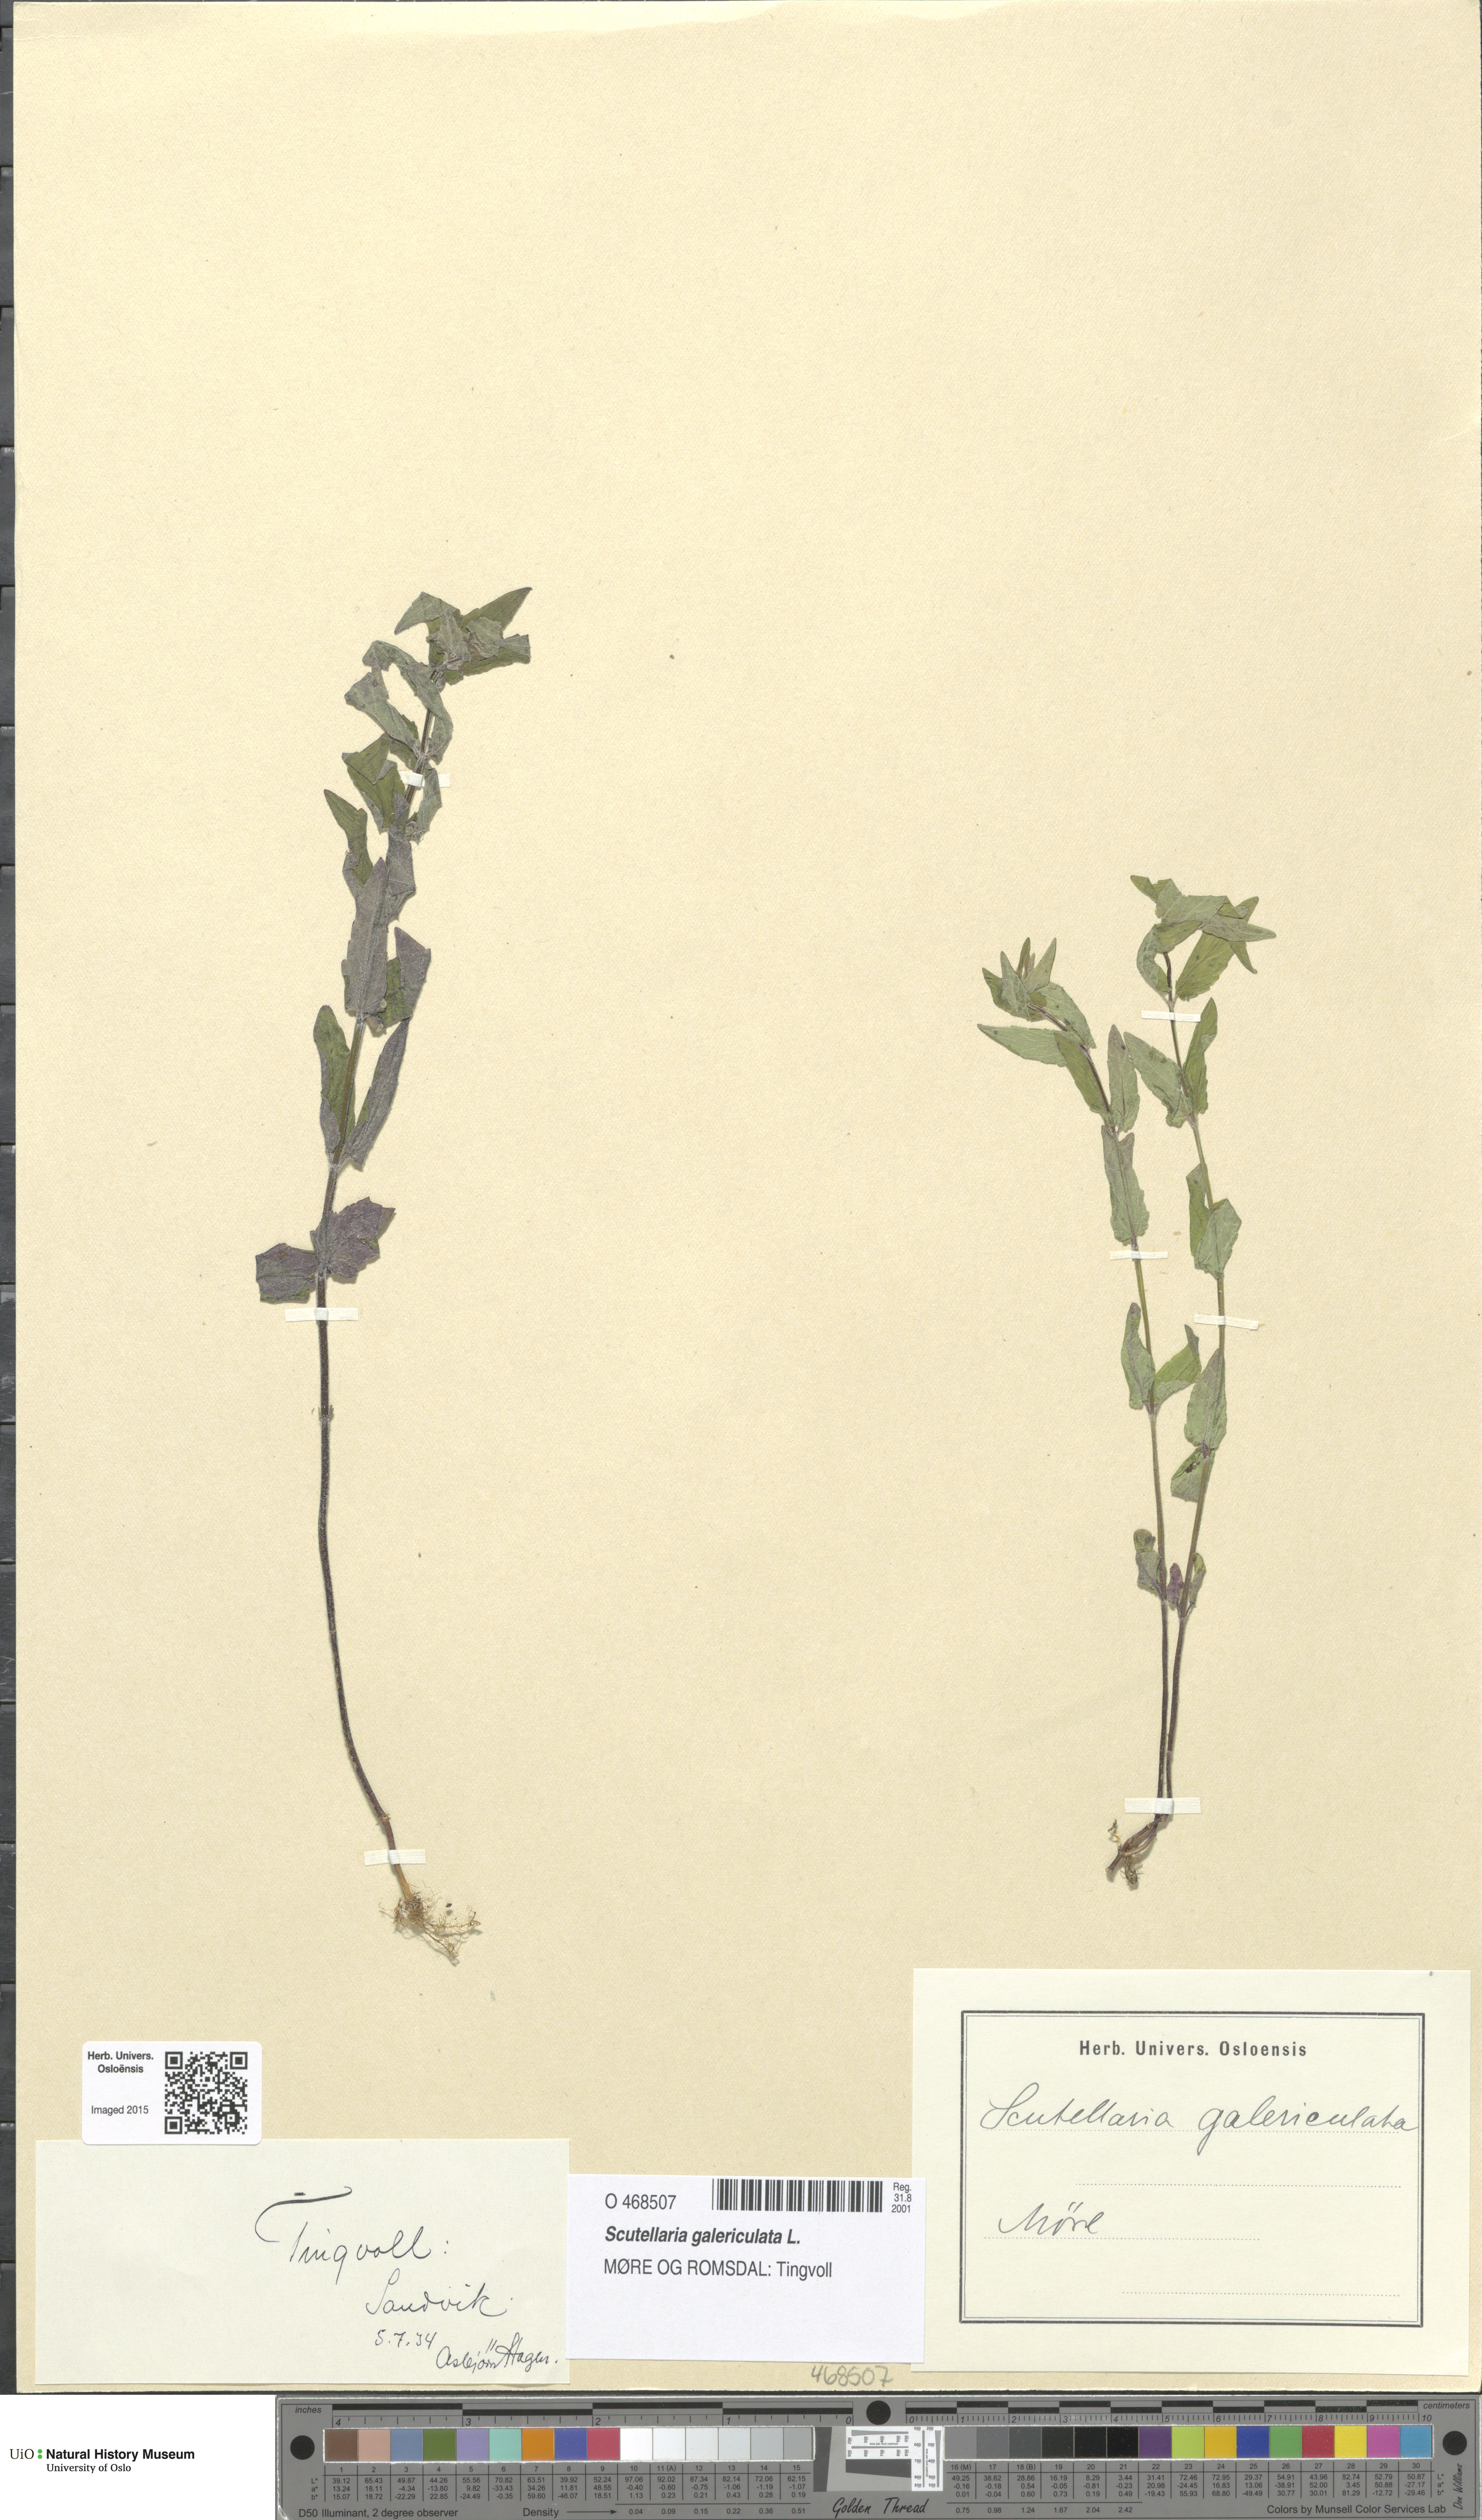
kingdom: Plantae
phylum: Tracheophyta
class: Magnoliopsida
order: Lamiales
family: Lamiaceae
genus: Scutellaria
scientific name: Scutellaria galericulata
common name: Skullcap
